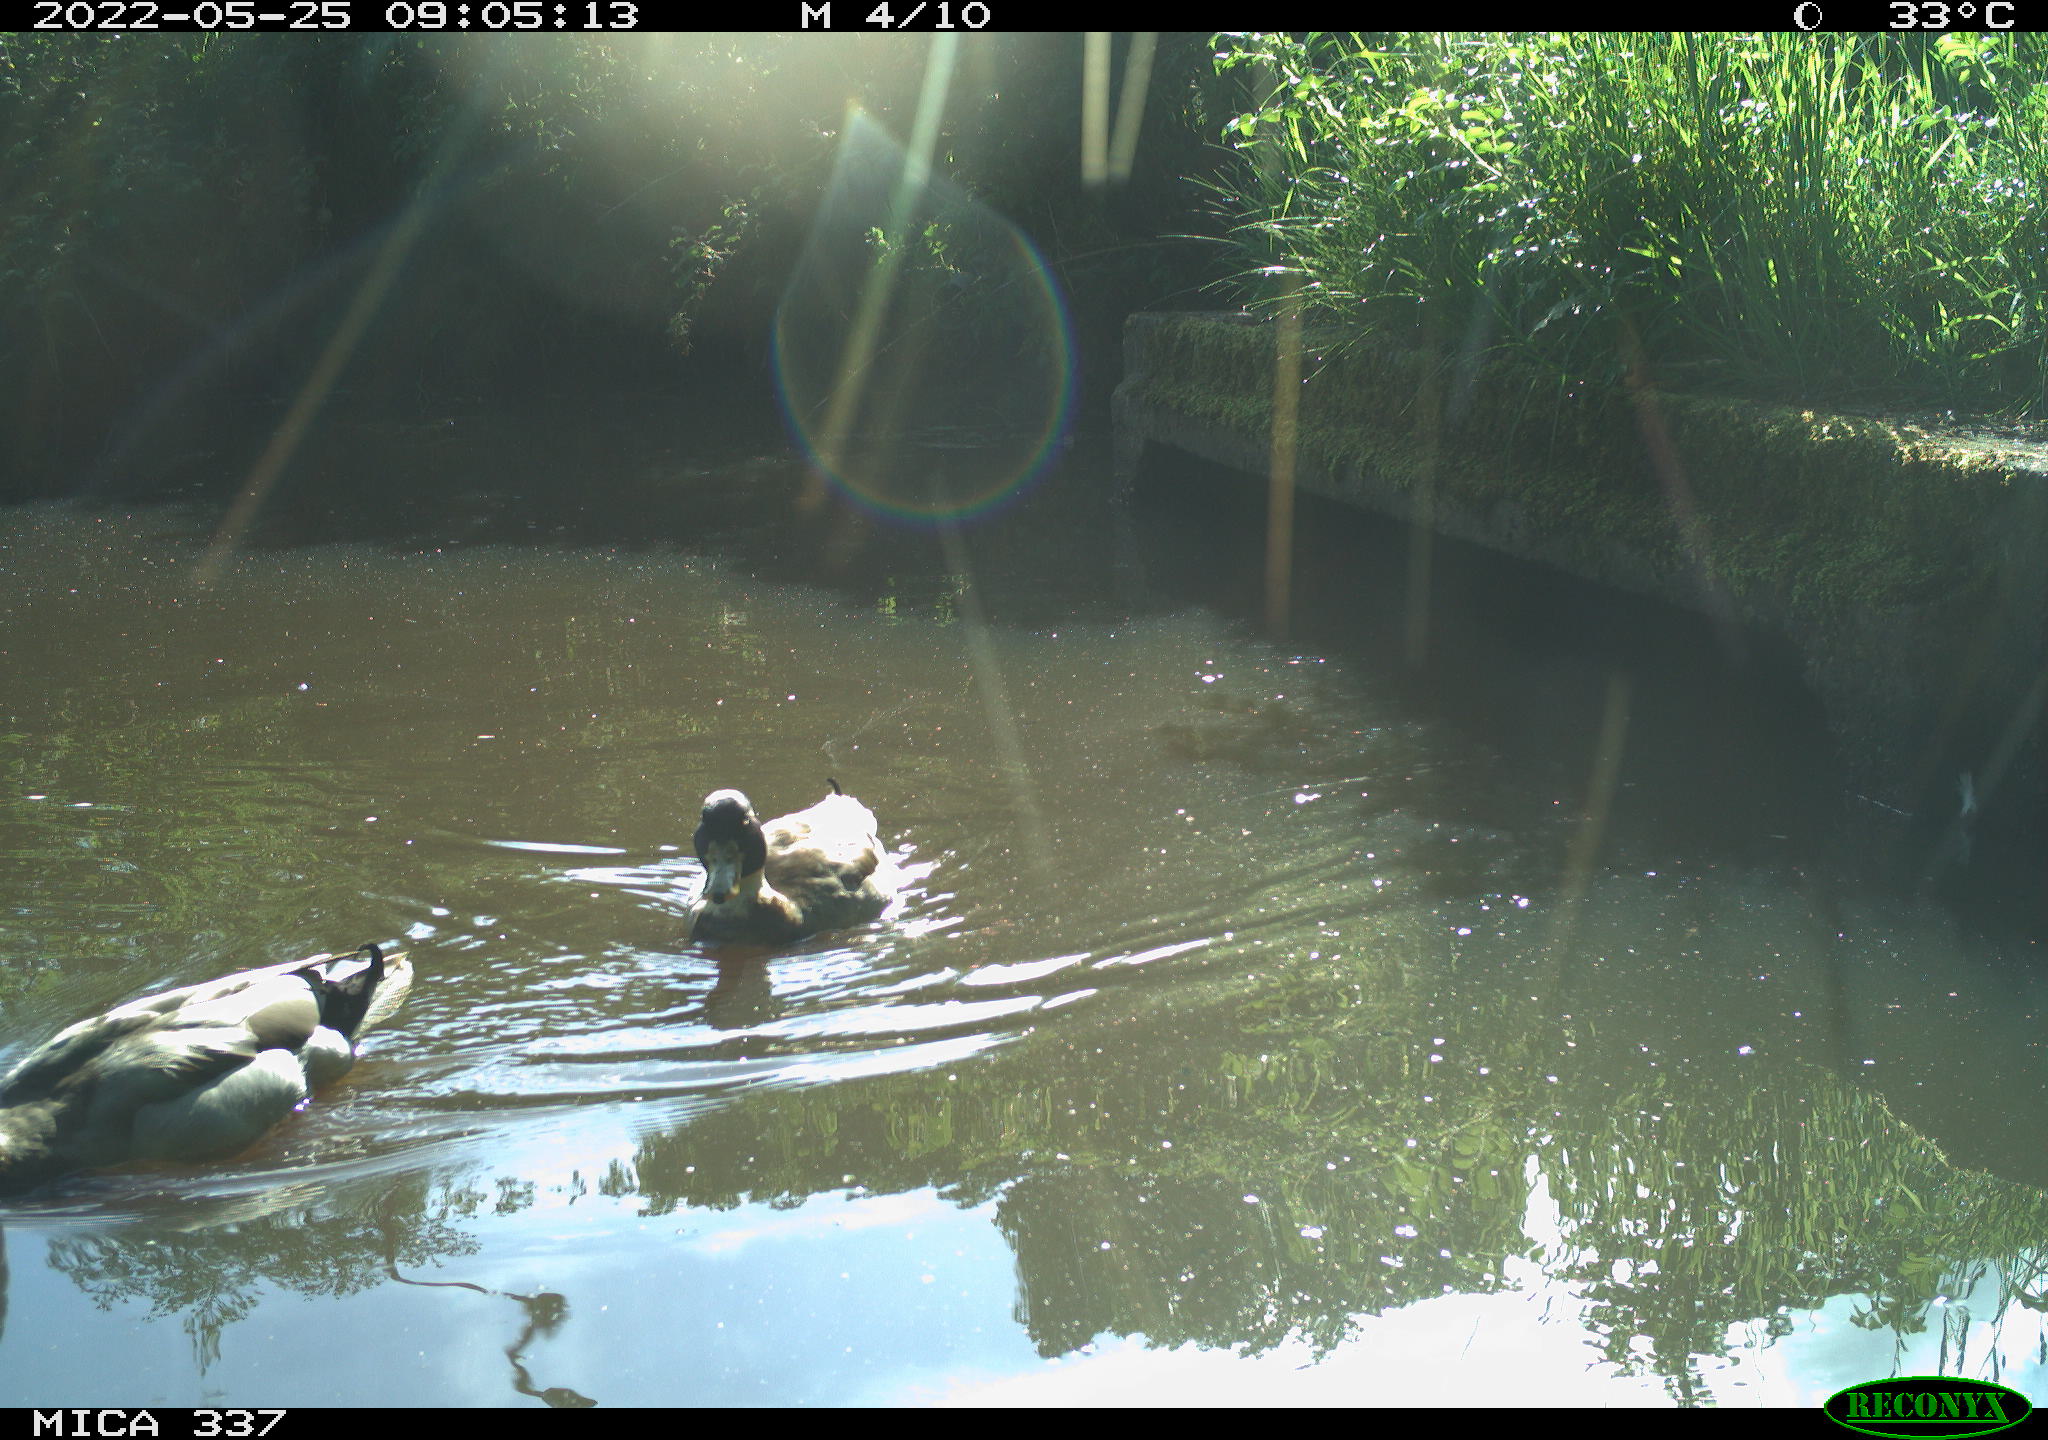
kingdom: Animalia
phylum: Chordata
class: Aves
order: Anseriformes
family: Anatidae
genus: Anas
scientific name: Anas platyrhynchos
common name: Mallard
